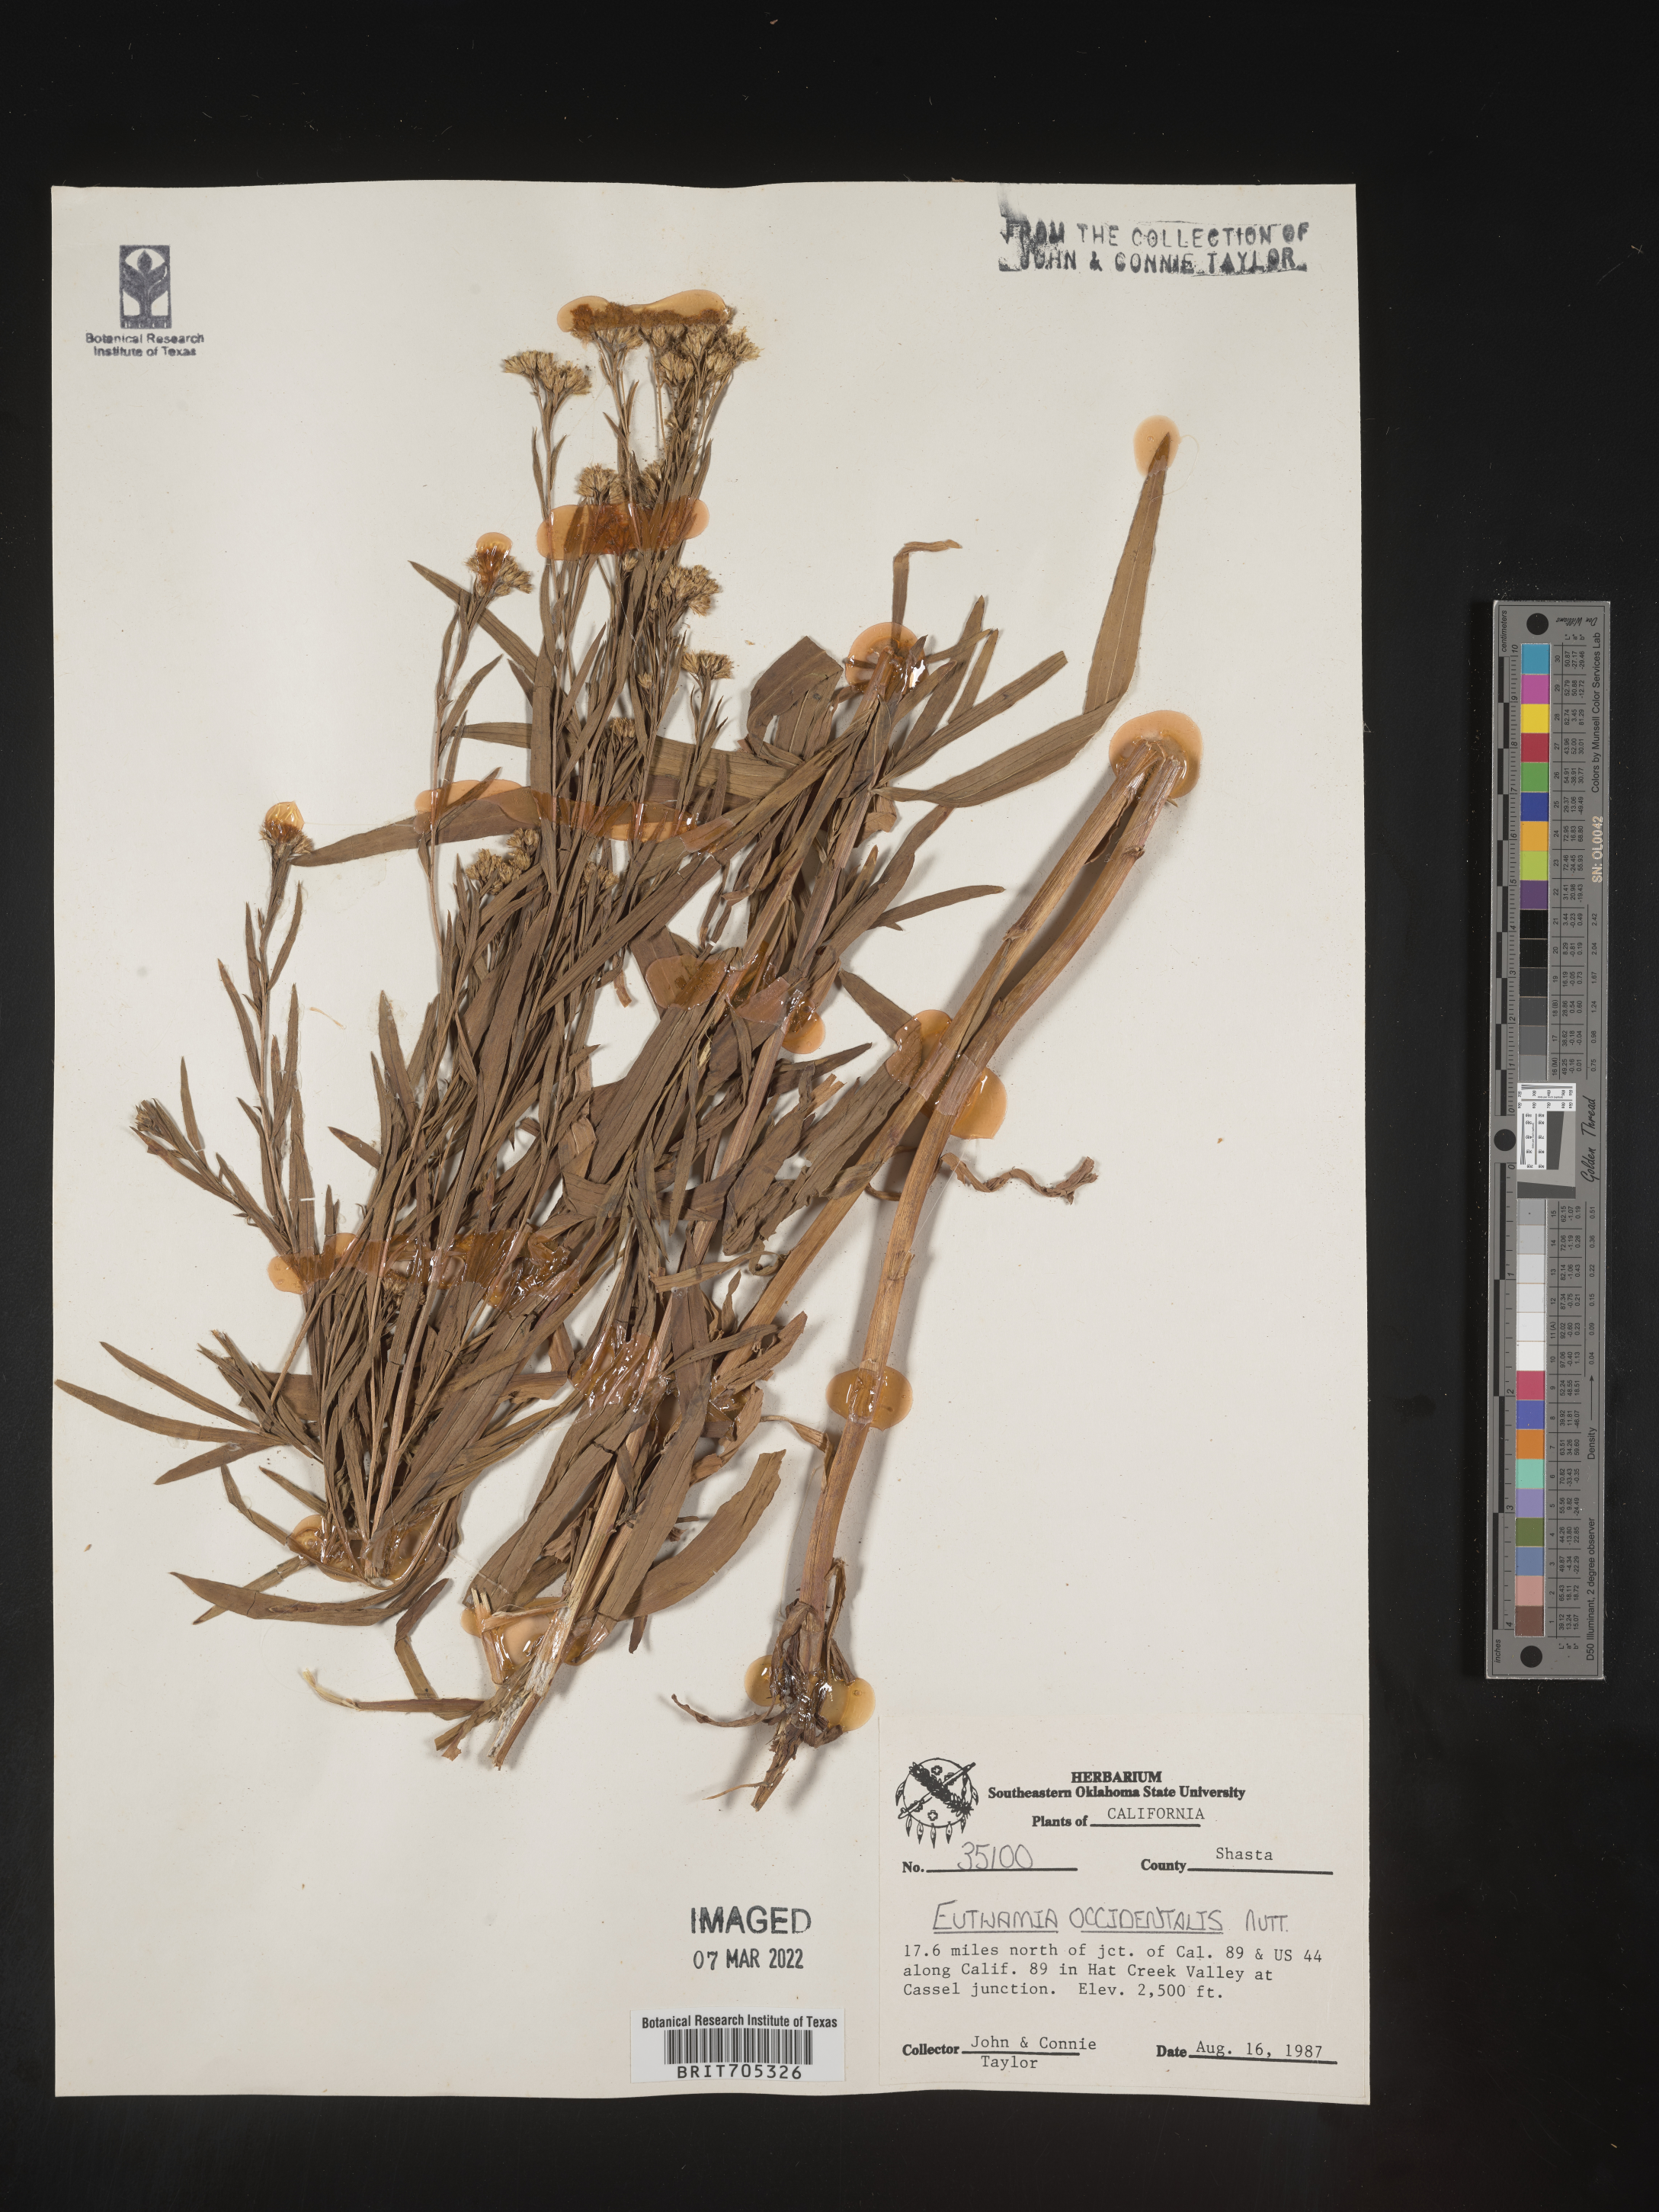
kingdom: Plantae
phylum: Tracheophyta
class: Magnoliopsida
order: Asterales
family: Asteraceae
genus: Euthamia
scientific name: Euthamia occidentalis
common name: Western goldentop
